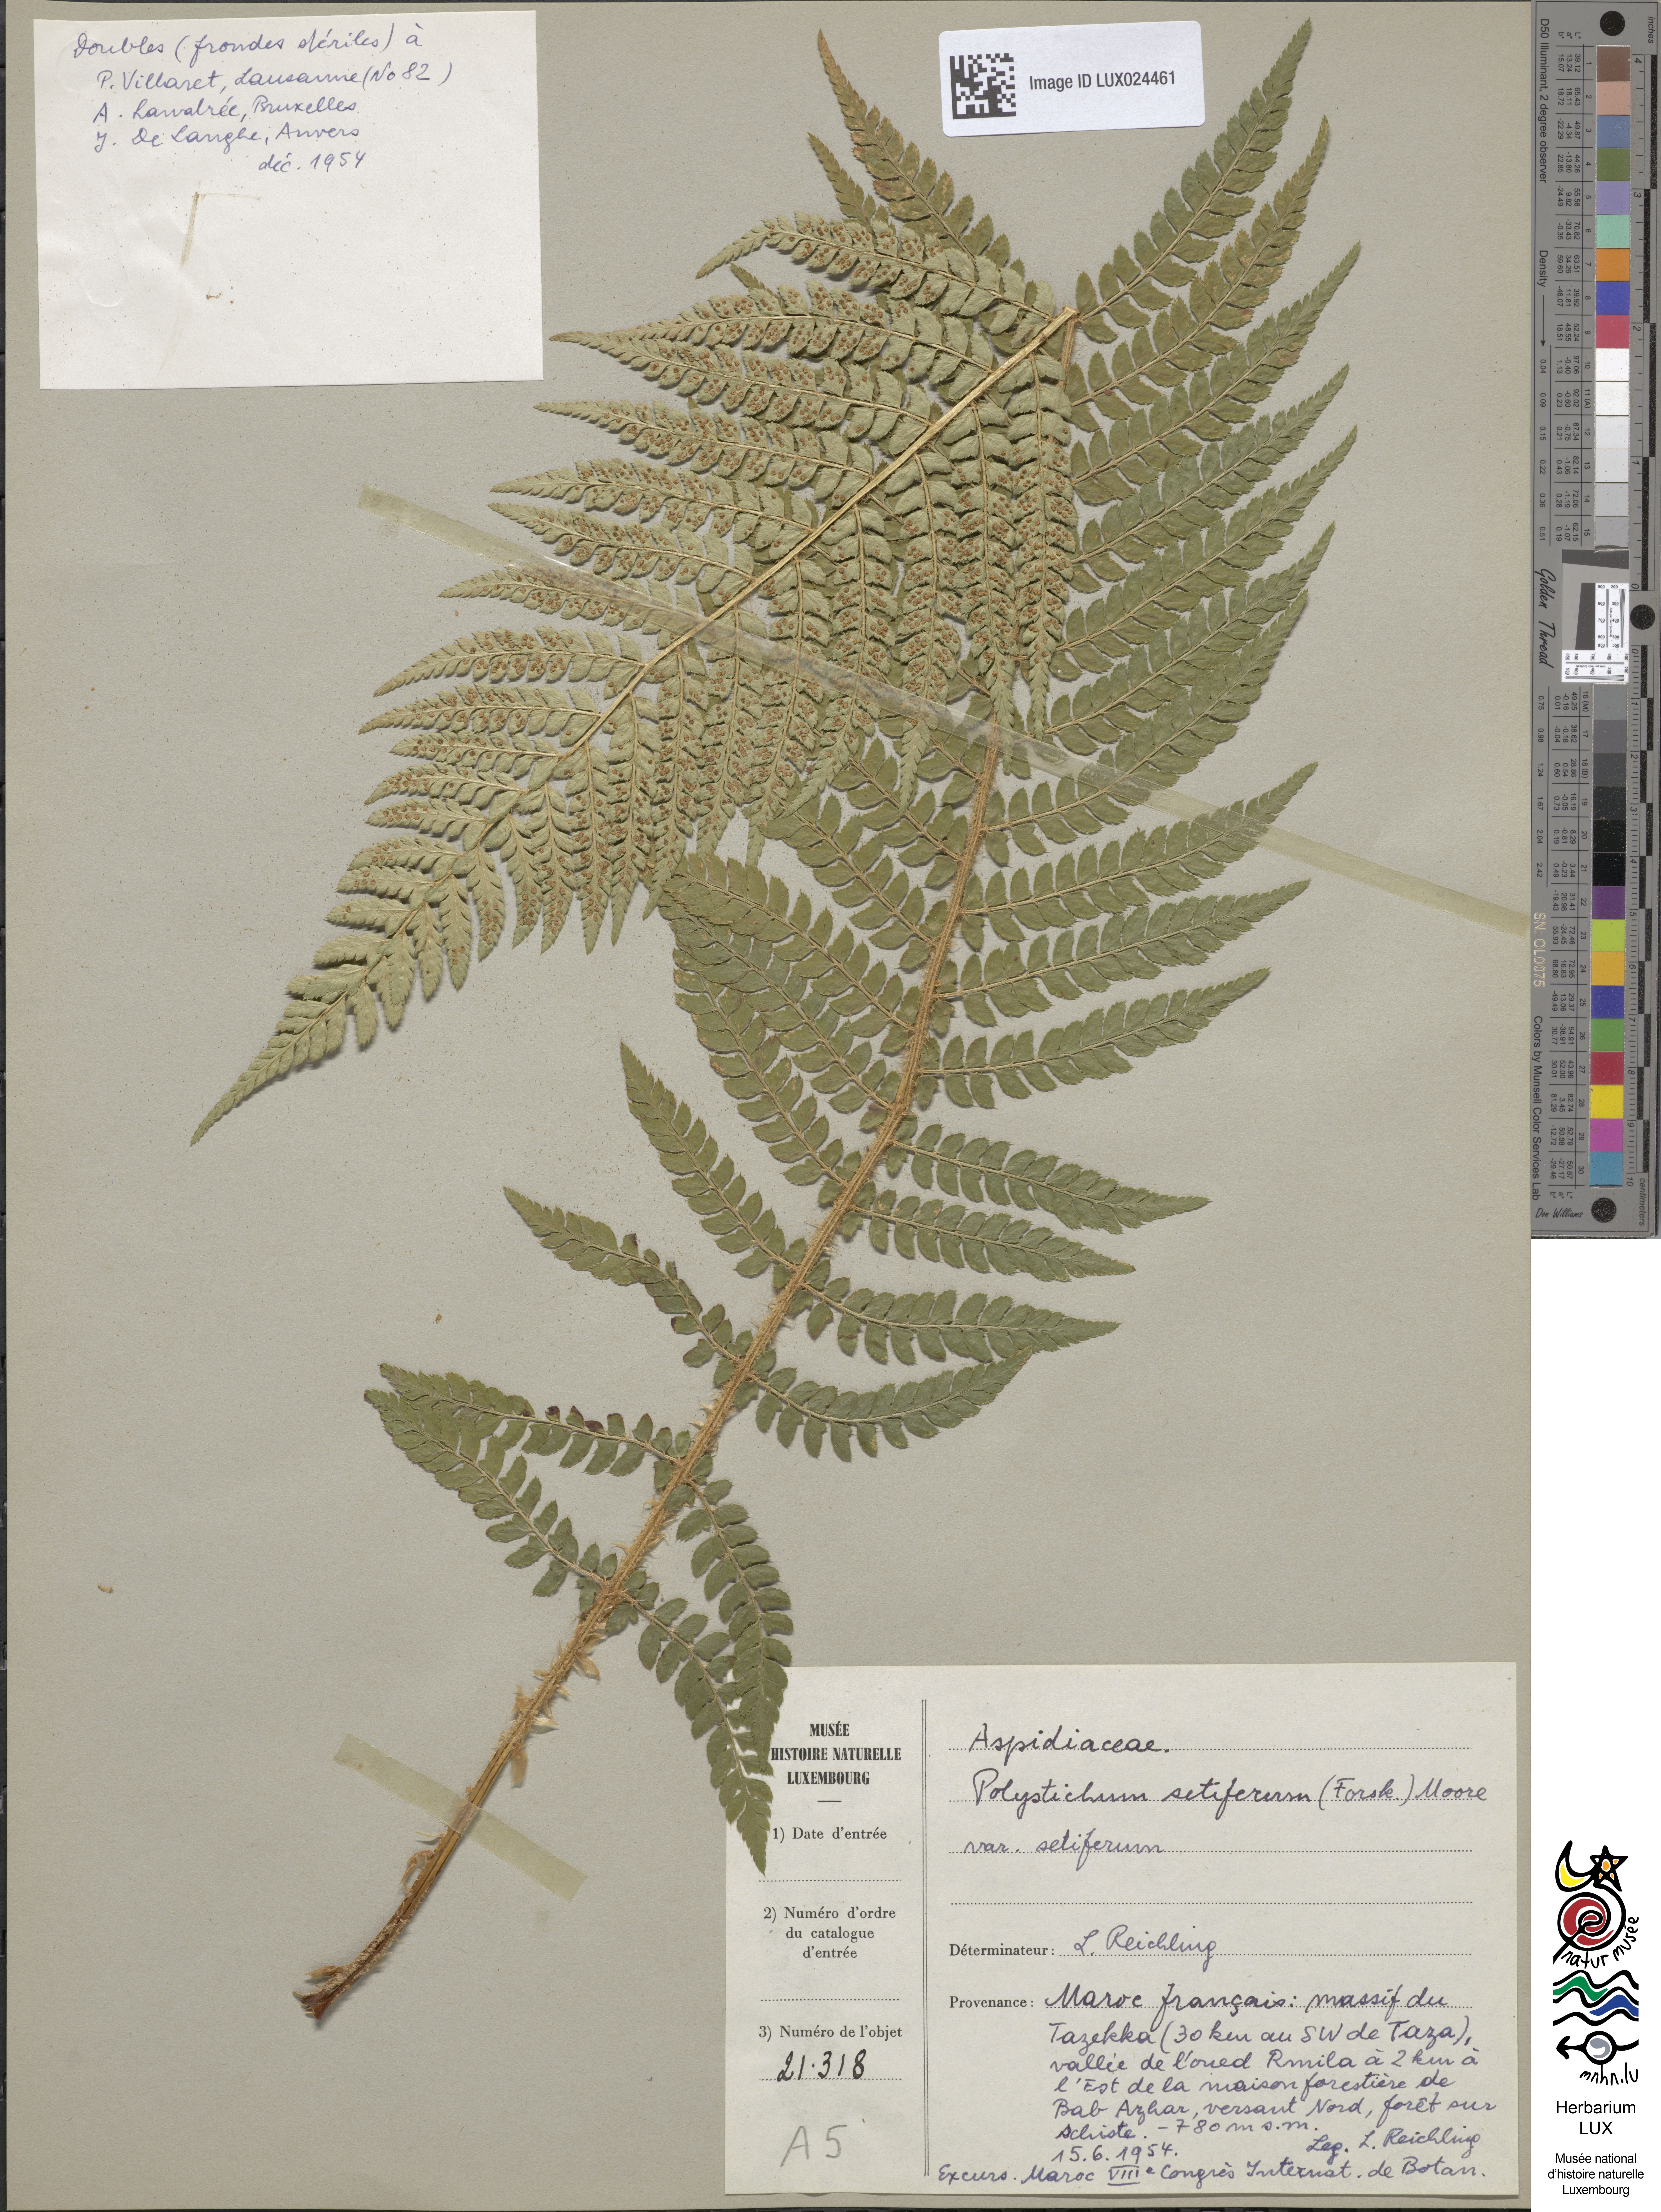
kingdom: Plantae
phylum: Tracheophyta
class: Polypodiopsida
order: Polypodiales
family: Dryopteridaceae
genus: Polystichum
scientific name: Polystichum setiferum
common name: Soft shield-fern
